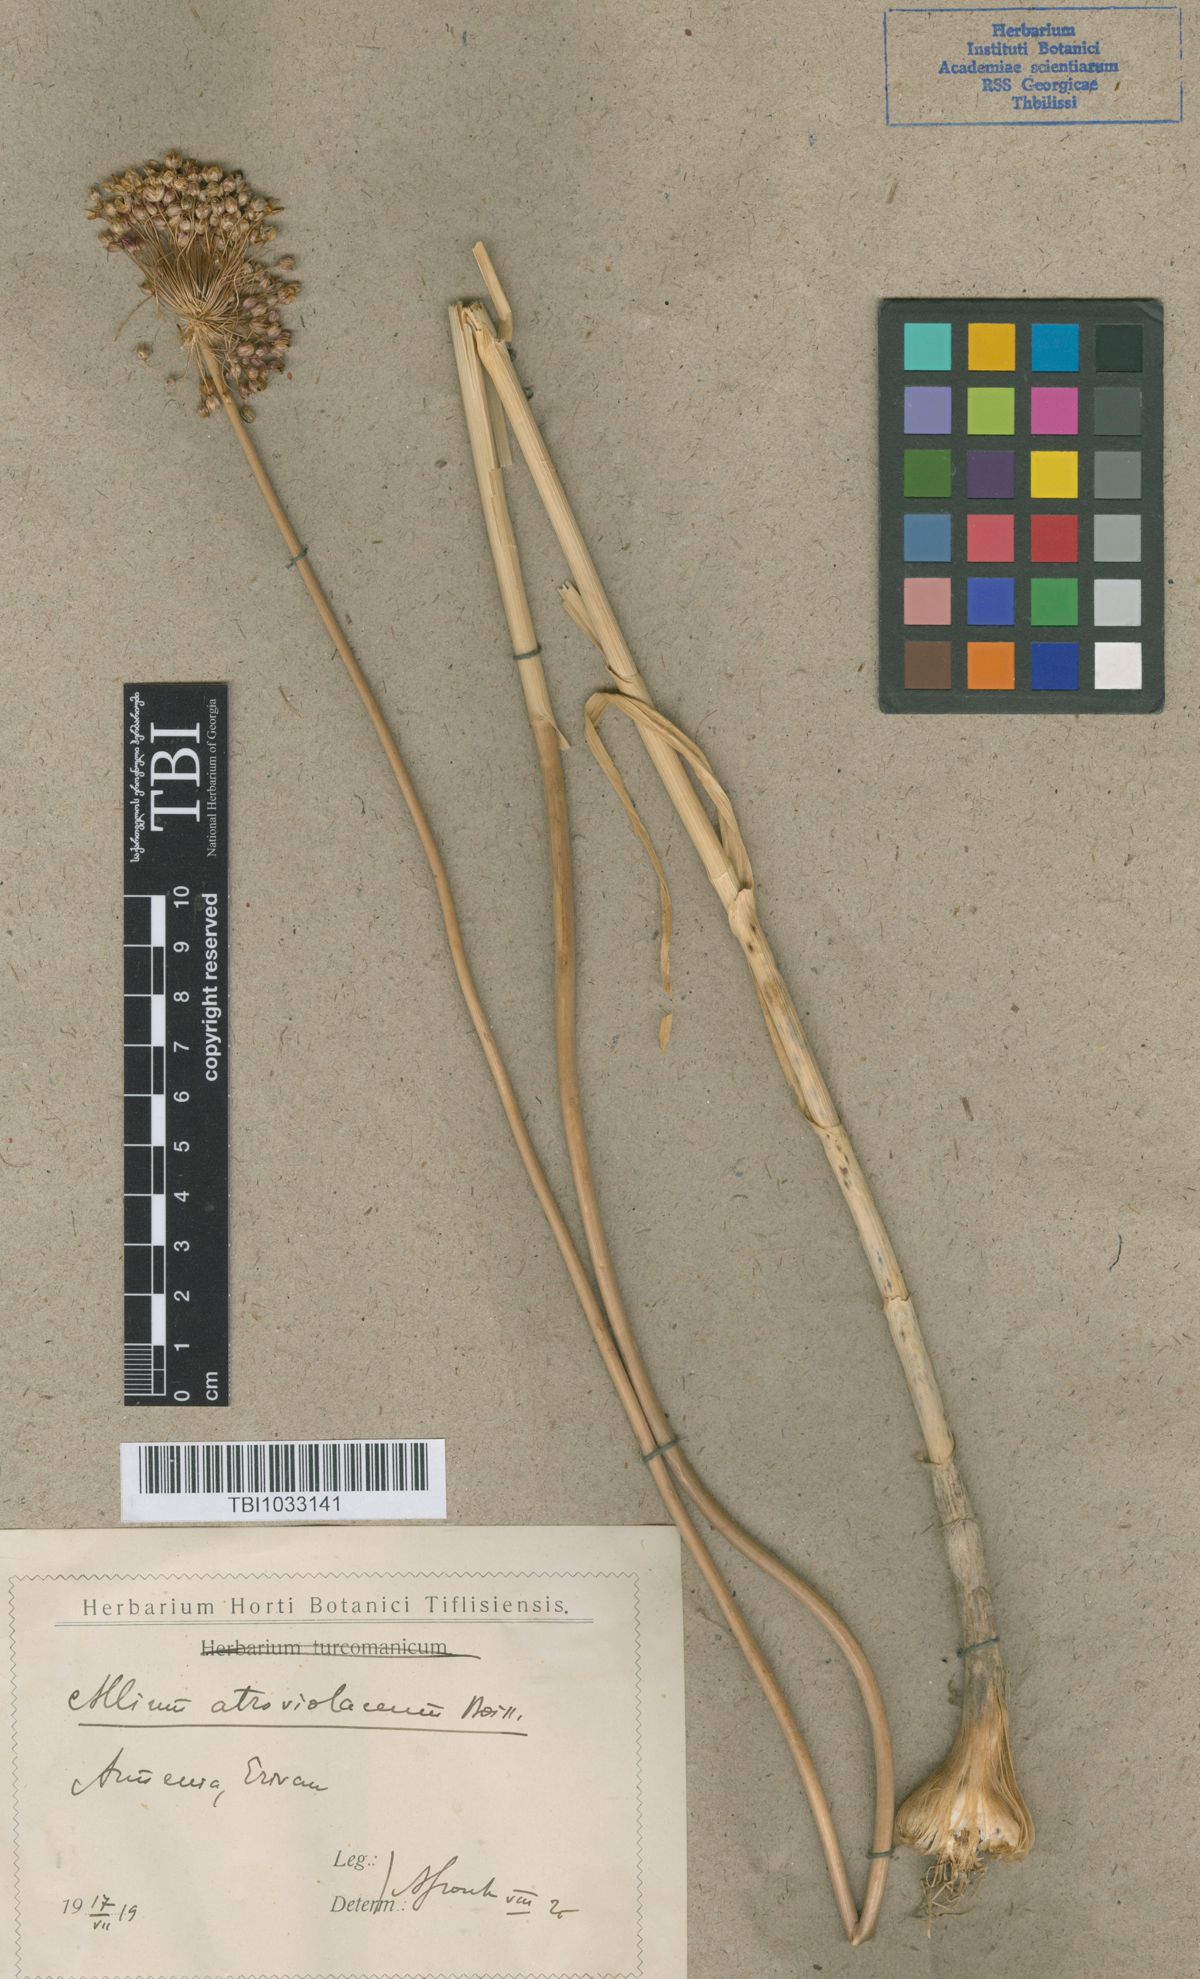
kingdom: Plantae
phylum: Tracheophyta
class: Liliopsida
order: Asparagales
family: Amaryllidaceae
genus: Allium
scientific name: Allium atroviolaceum
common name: Broadleaf wild leek
